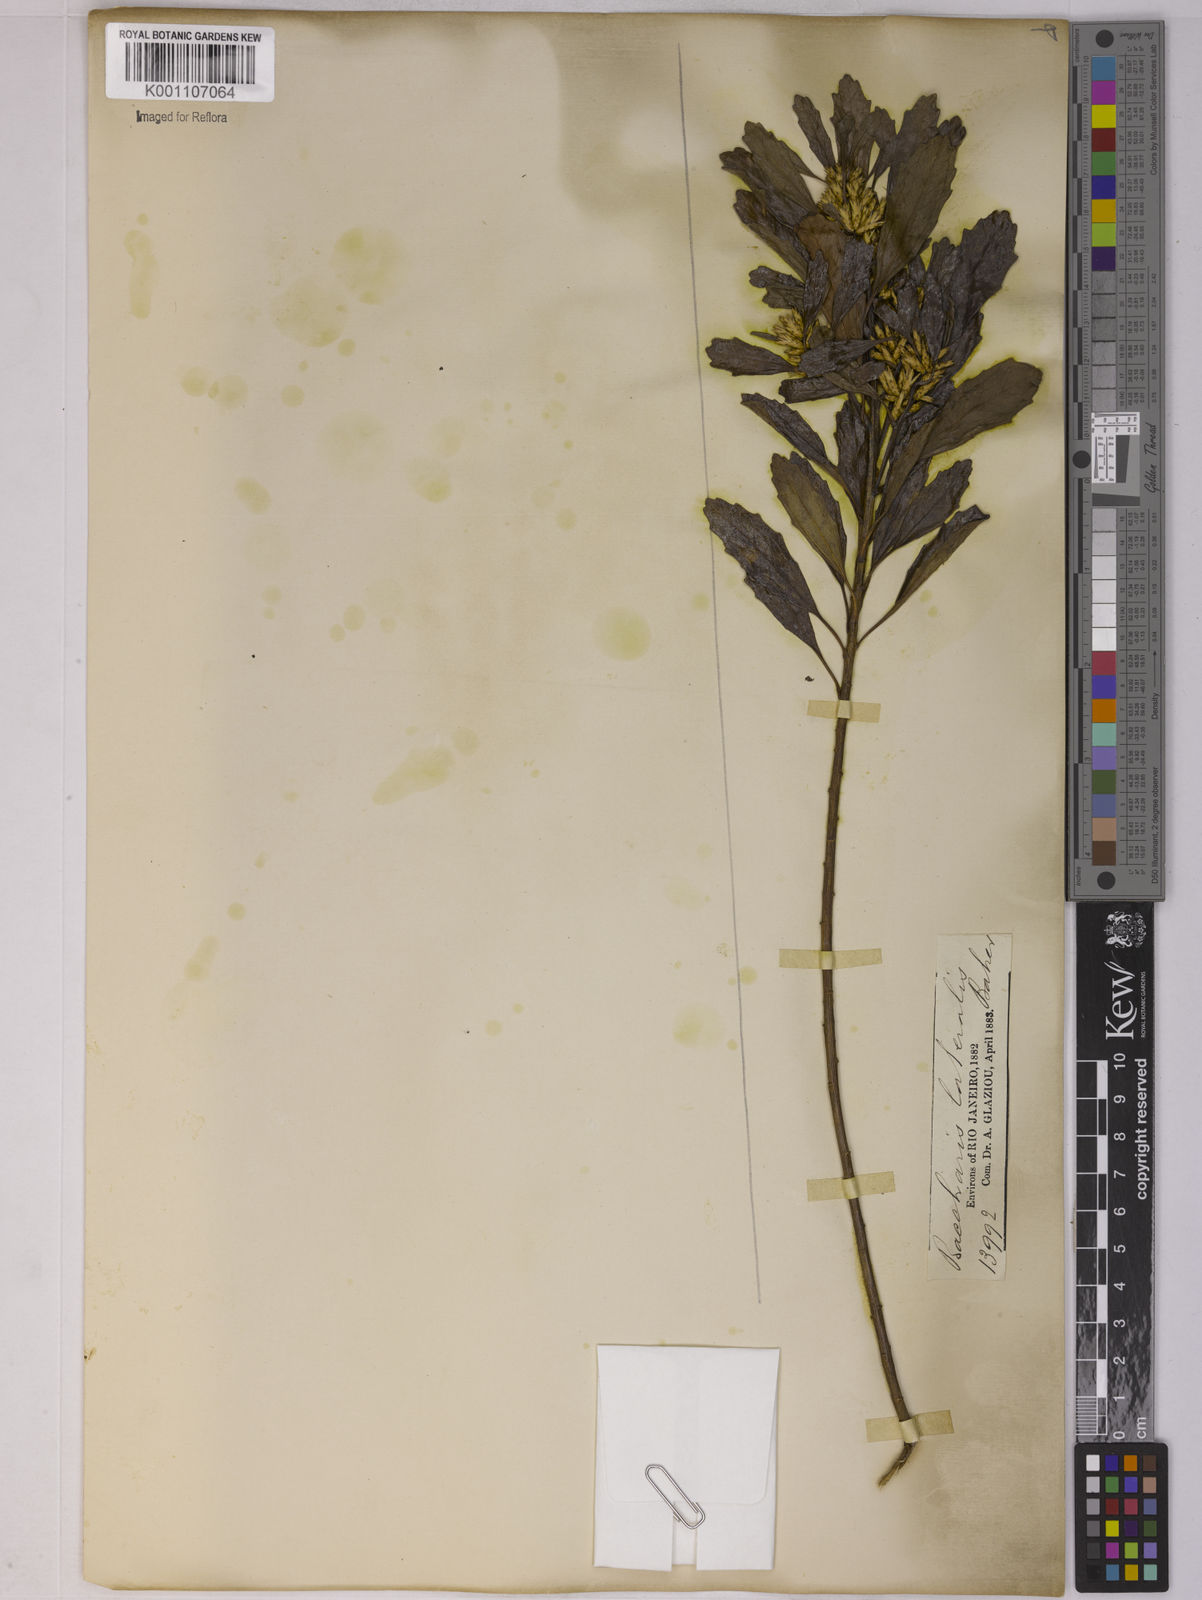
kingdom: Plantae
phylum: Tracheophyta
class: Magnoliopsida
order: Asterales
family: Asteraceae
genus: Baccharis
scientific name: Baccharis lateralis
